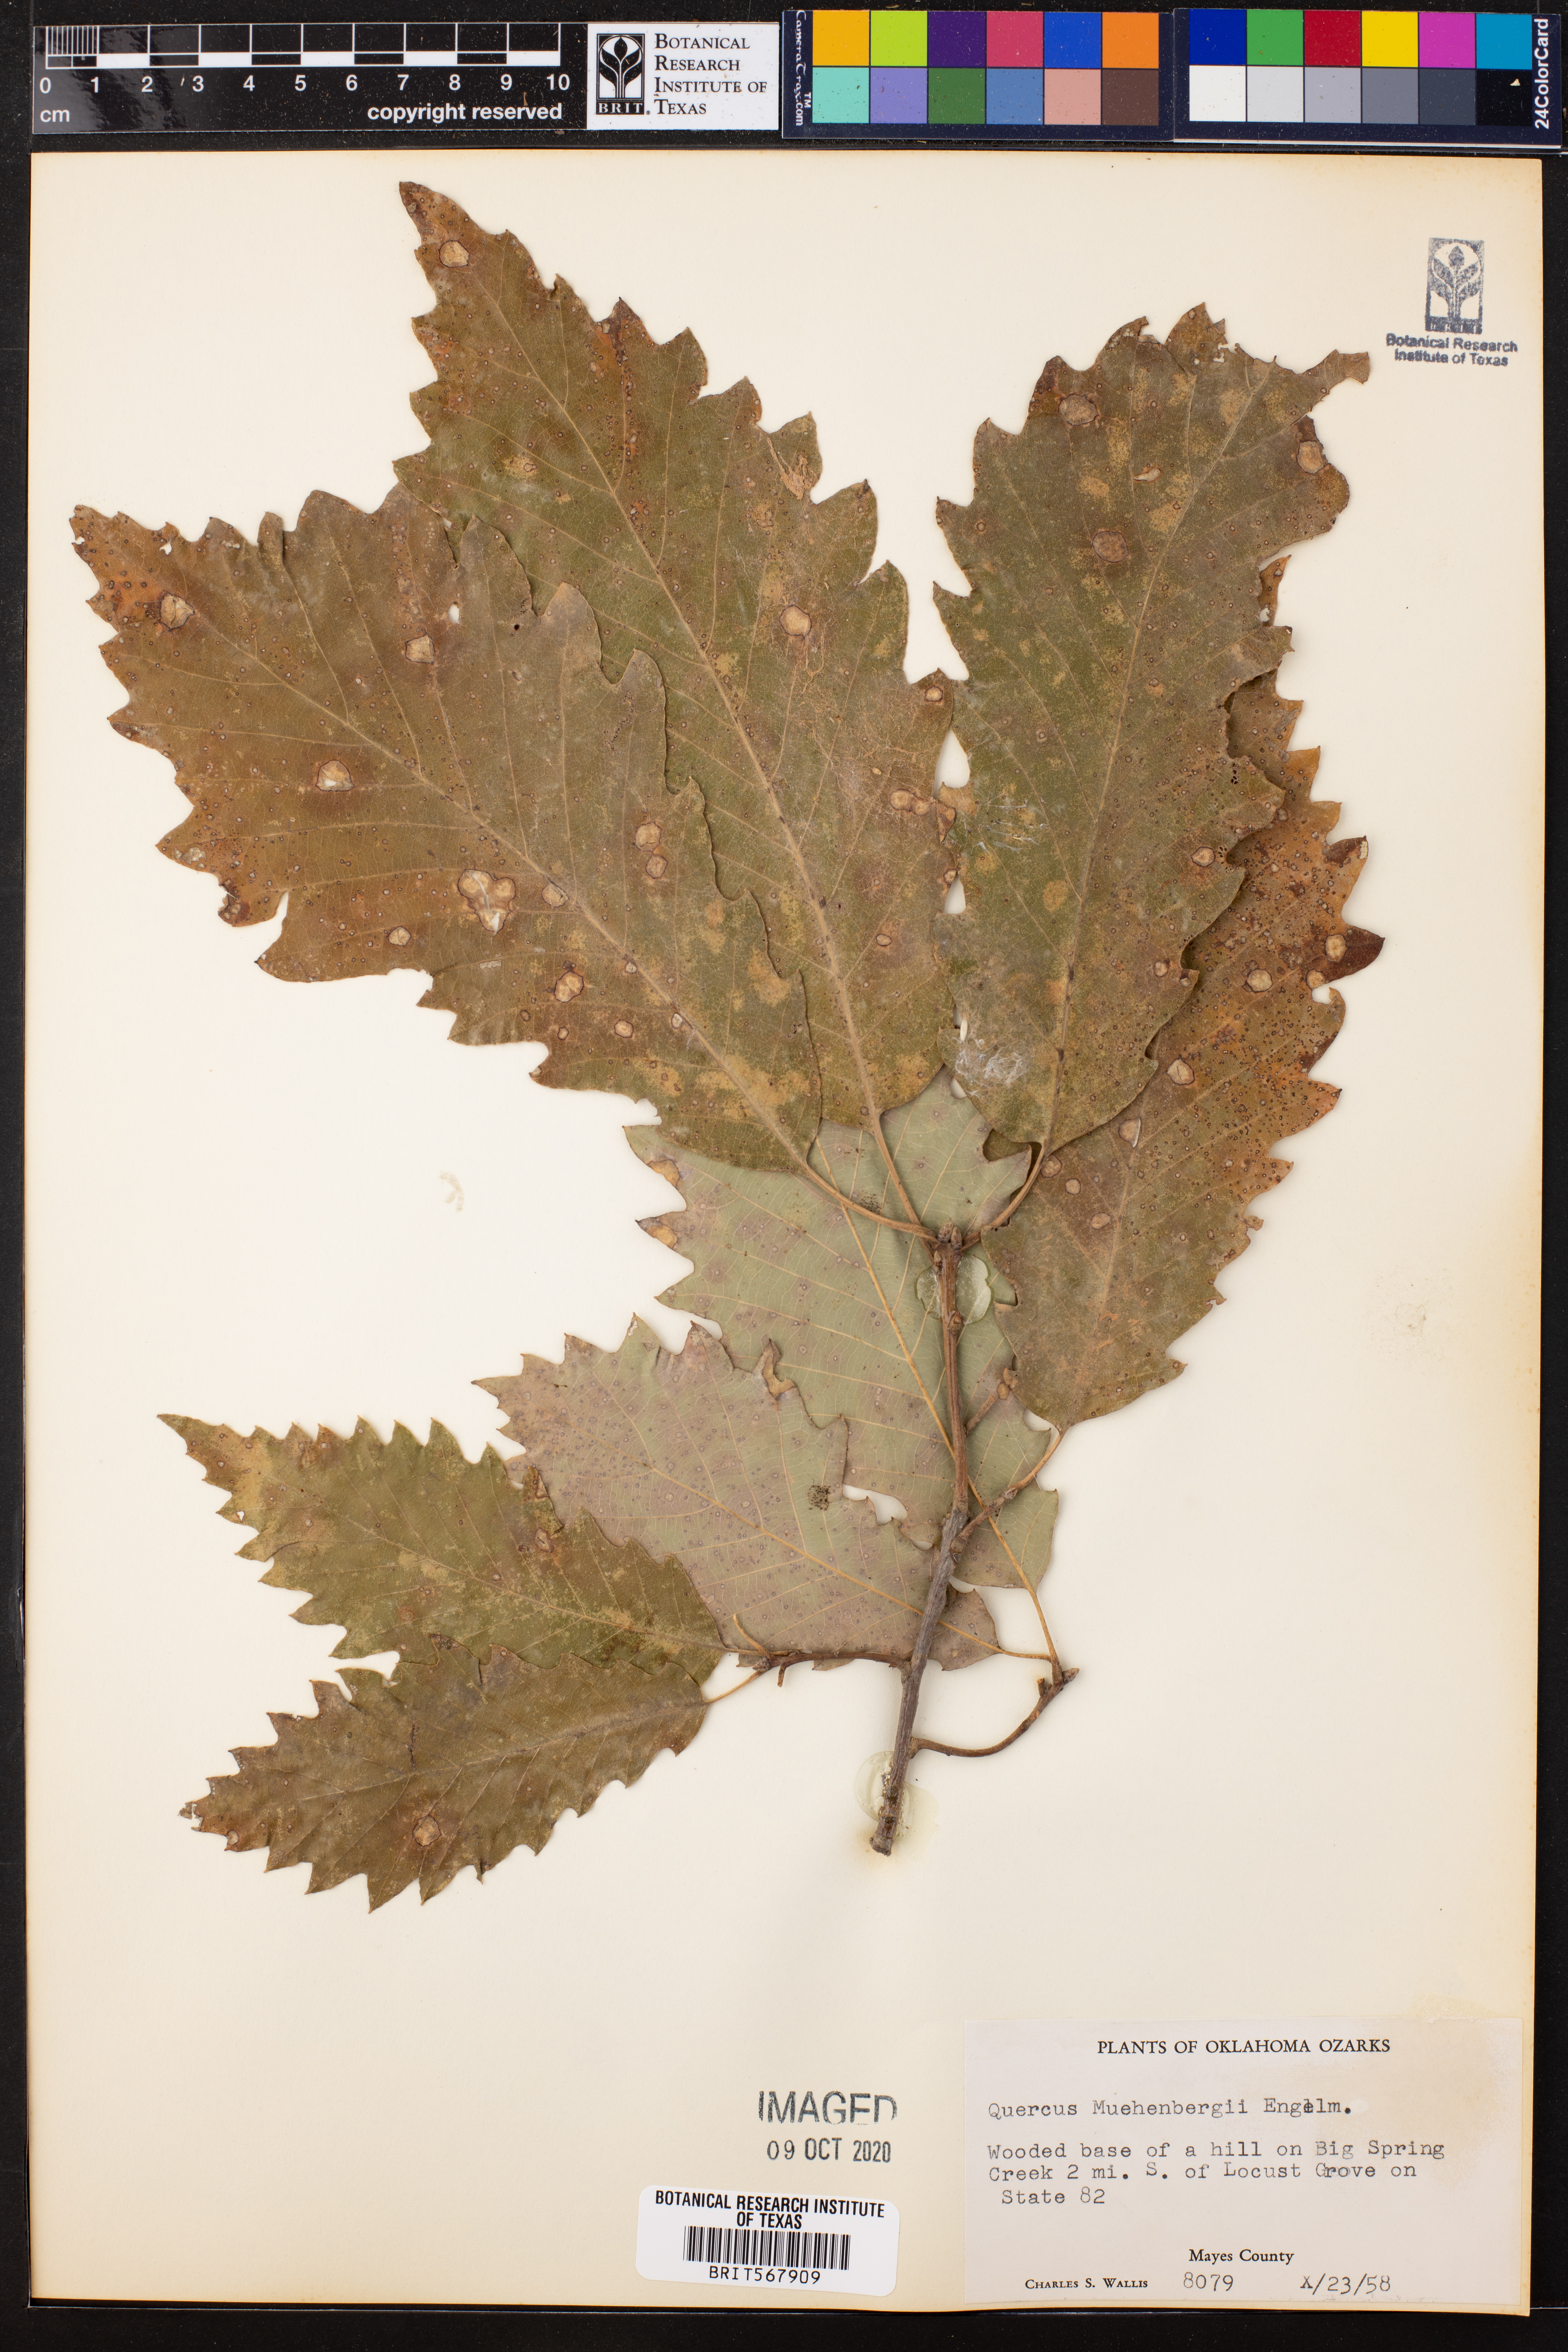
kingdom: Plantae
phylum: Tracheophyta
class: Magnoliopsida
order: Fagales
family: Fagaceae
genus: Quercus
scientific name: Quercus muehlenbergii
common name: Chinkapin oak
